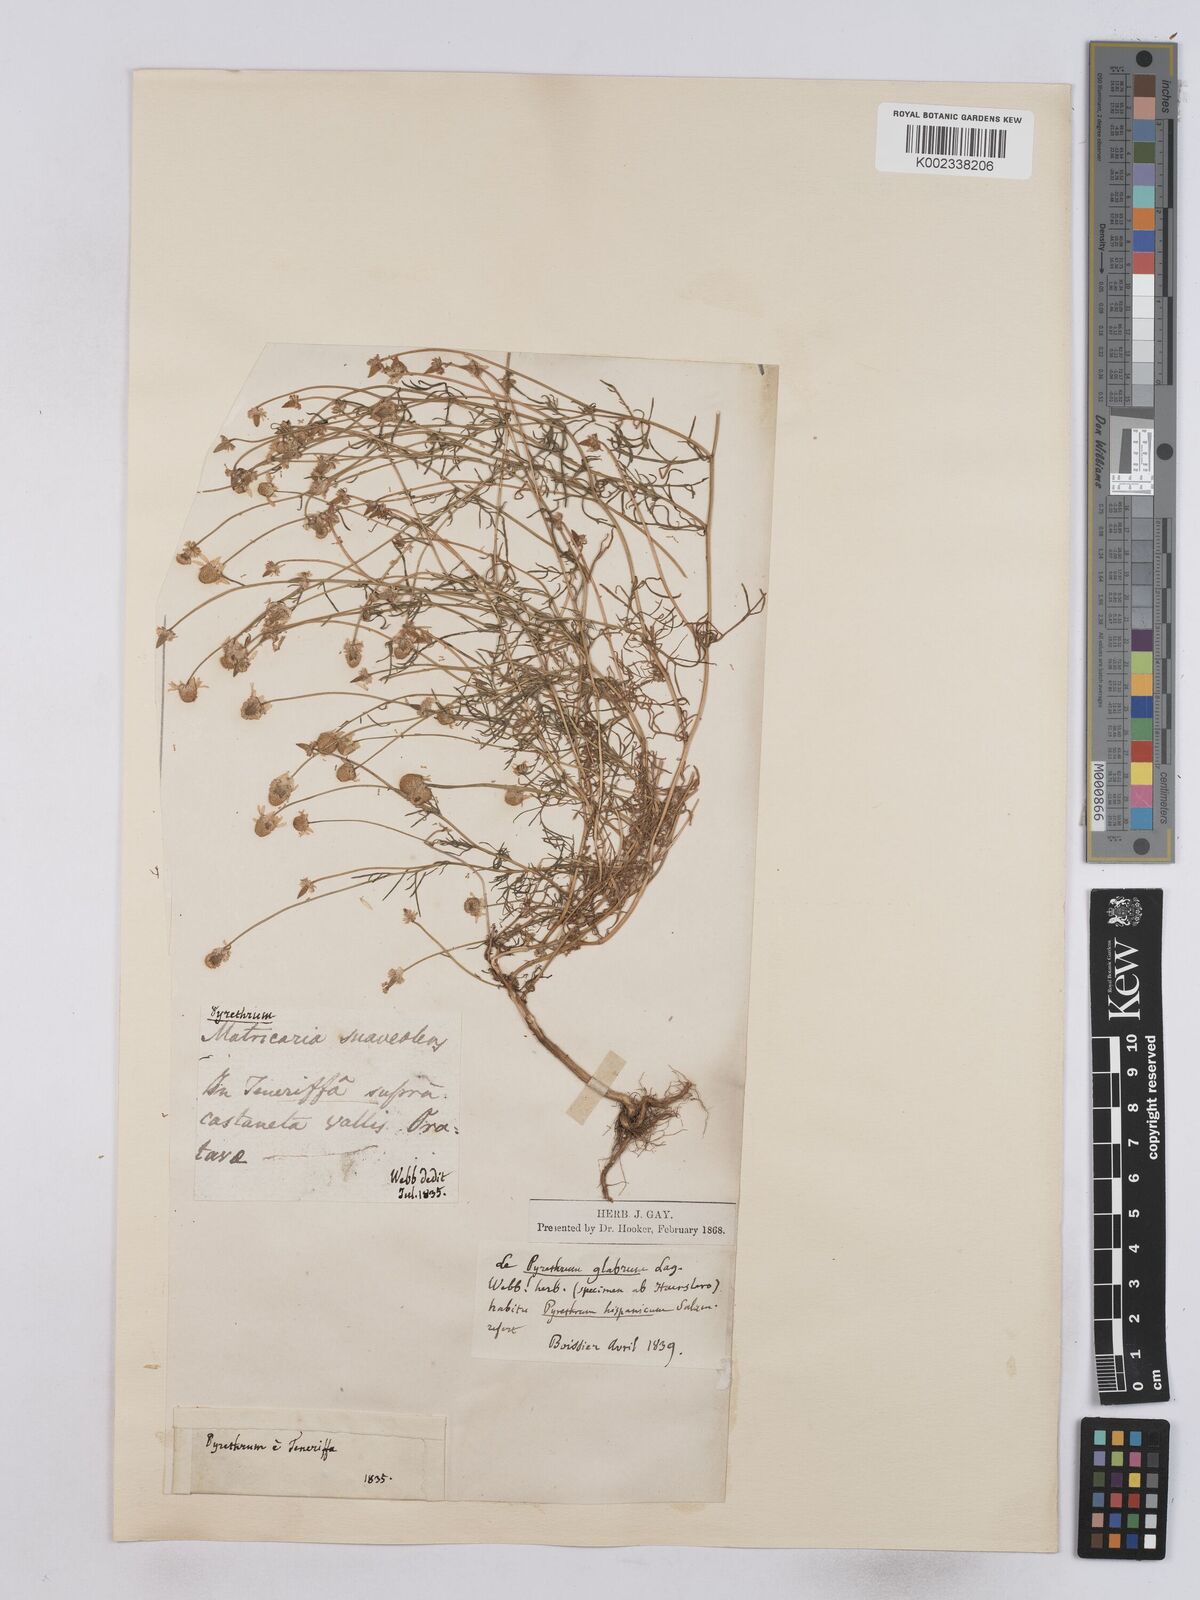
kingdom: Plantae
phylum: Tracheophyta
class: Magnoliopsida
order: Asterales
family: Asteraceae
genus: Matricaria
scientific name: Matricaria chamomilla
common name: Scented mayweed
